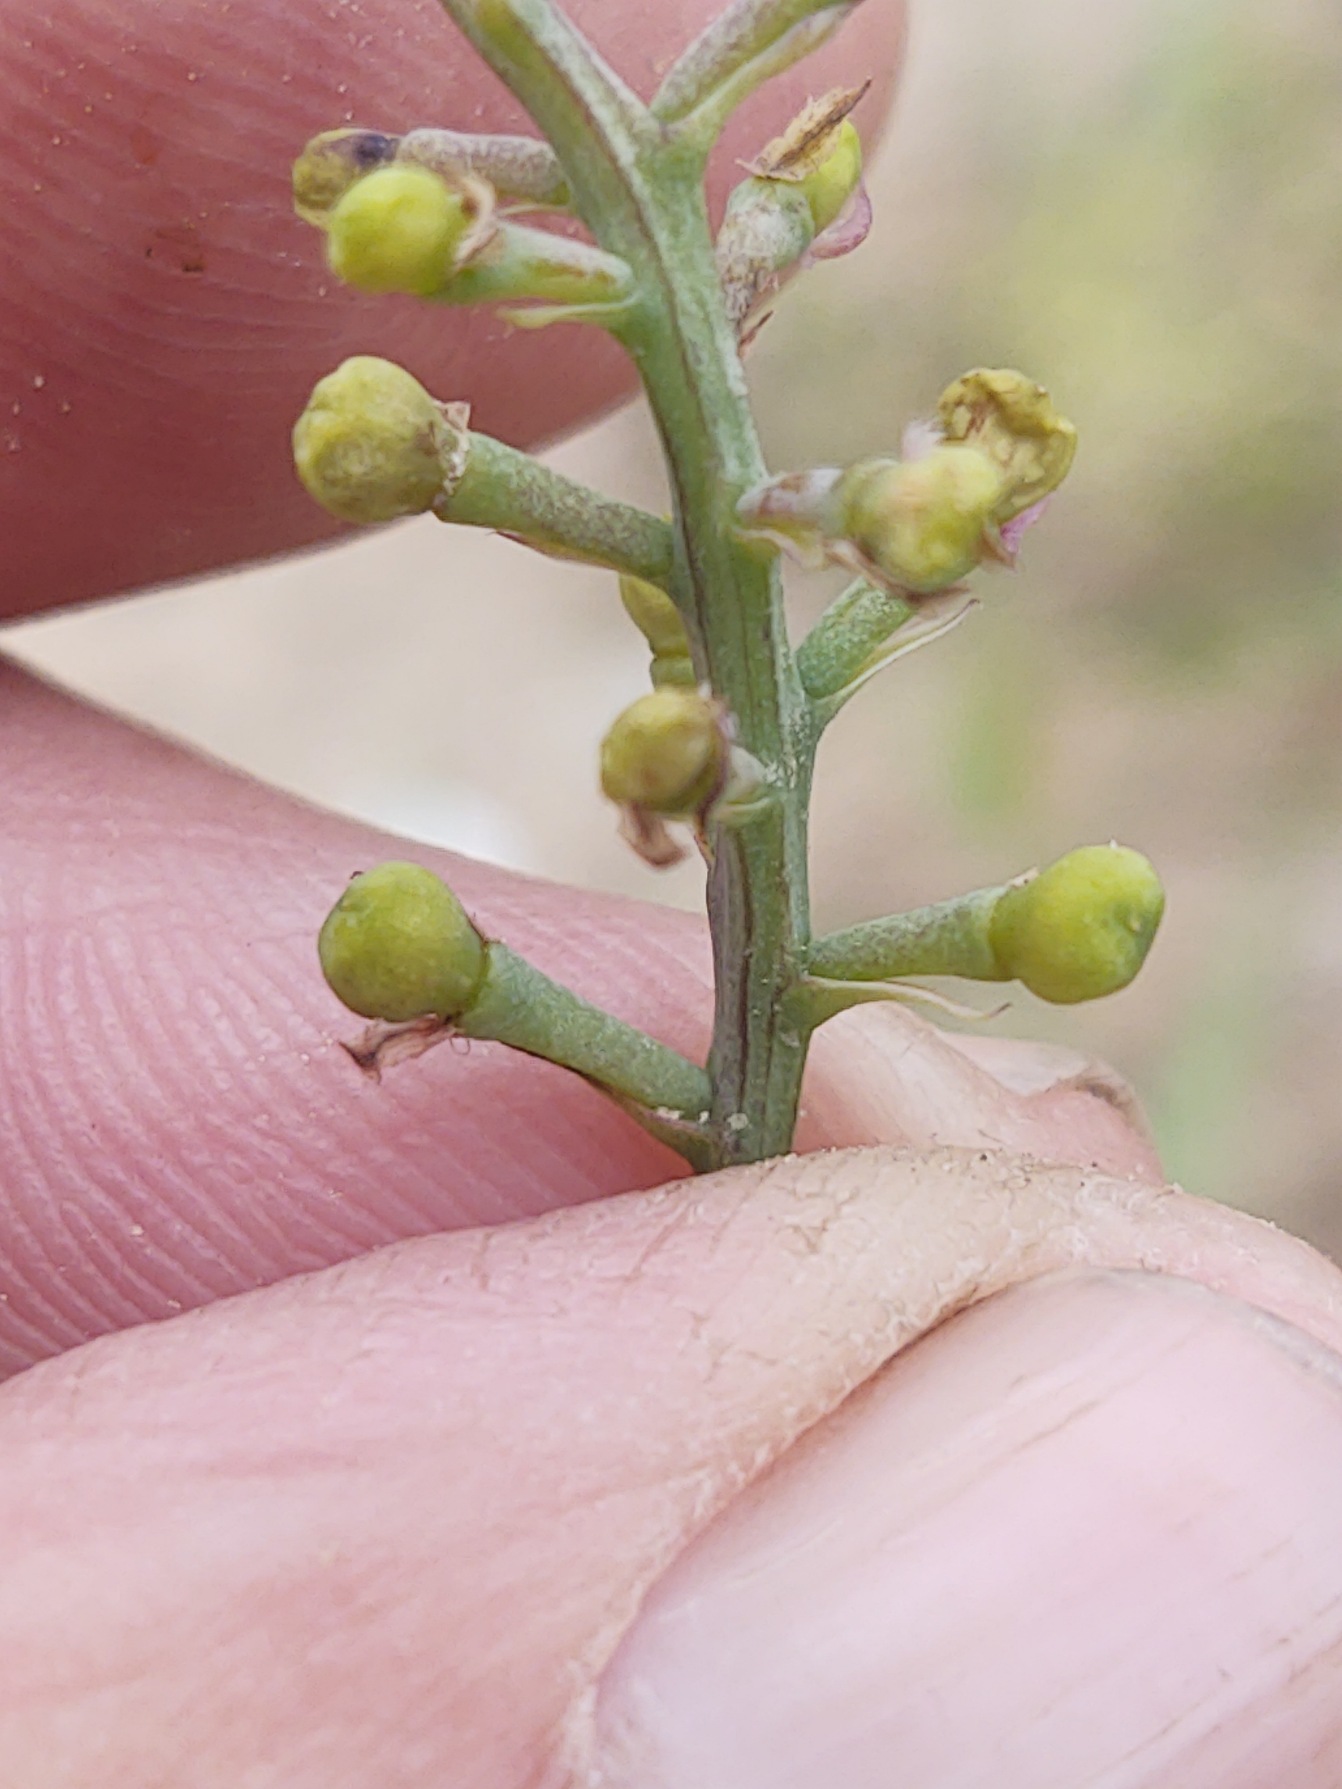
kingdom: Plantae
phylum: Tracheophyta
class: Magnoliopsida
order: Ranunculales
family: Papaveraceae
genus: Fumaria
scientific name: Fumaria officinalis
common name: Læge-jordrøg
